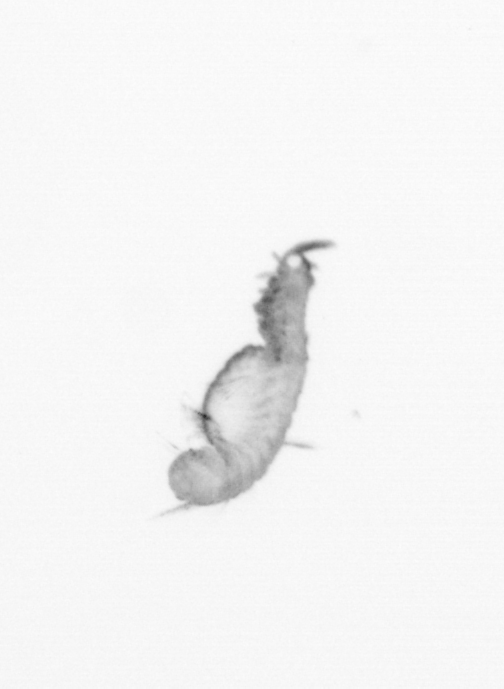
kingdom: Animalia
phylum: Annelida
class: Polychaeta
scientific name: Polychaeta
